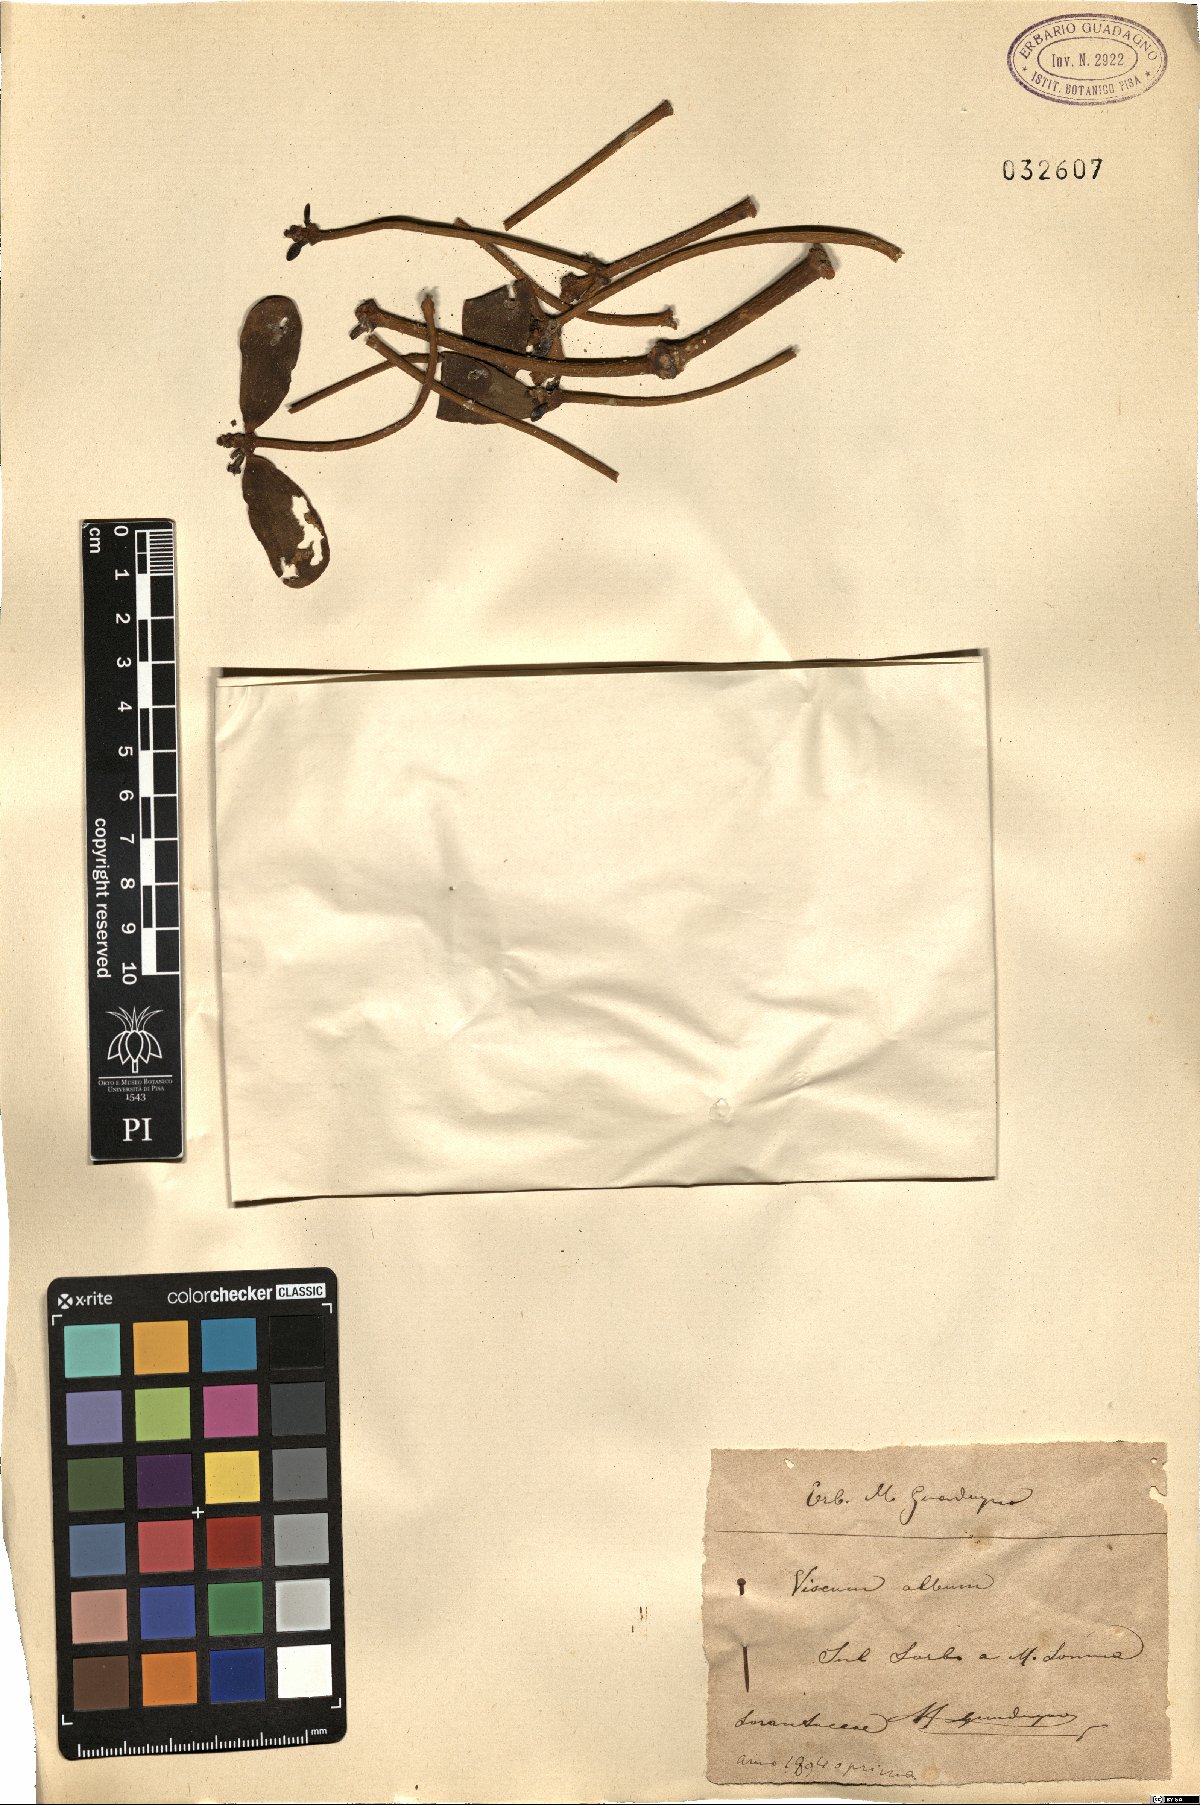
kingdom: Plantae
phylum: Tracheophyta
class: Magnoliopsida
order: Santalales
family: Viscaceae
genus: Viscum
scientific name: Viscum album
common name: Mistletoe
